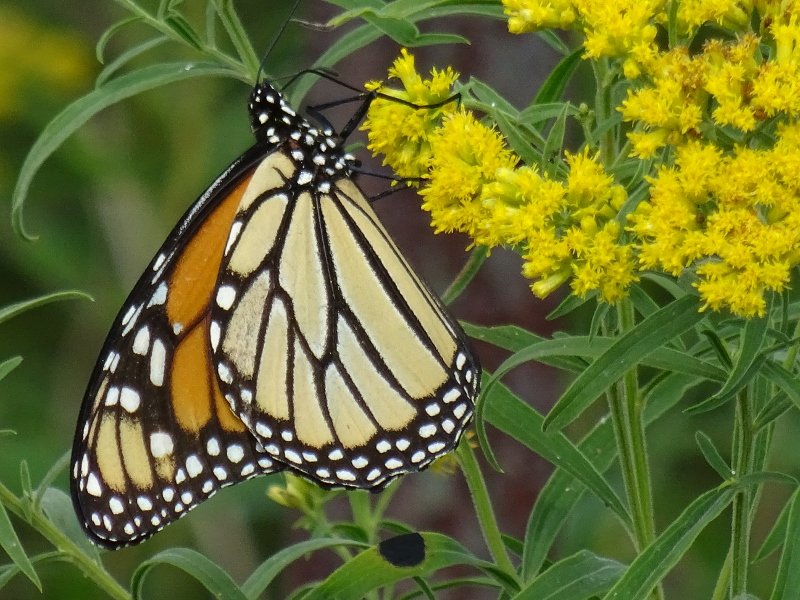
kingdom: Animalia
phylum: Arthropoda
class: Insecta
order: Lepidoptera
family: Nymphalidae
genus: Danaus
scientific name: Danaus plexippus
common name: Monarch
